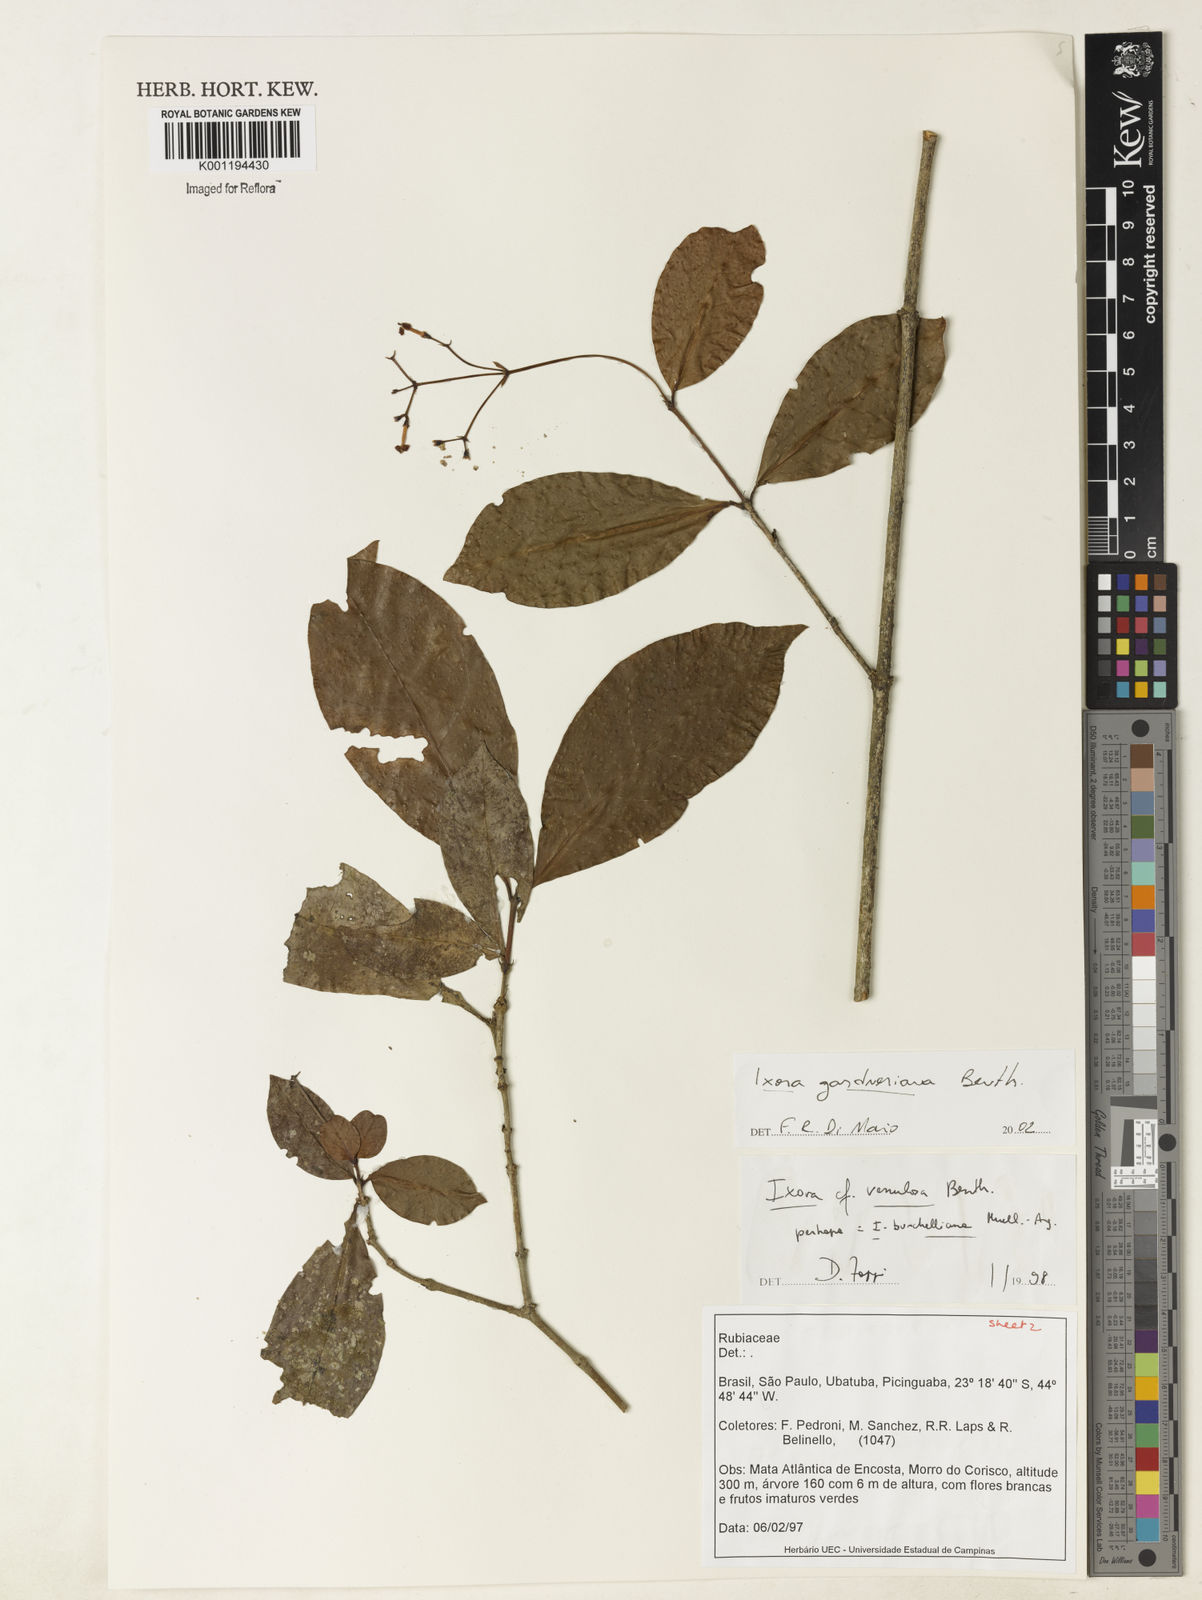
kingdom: Plantae
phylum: Tracheophyta
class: Magnoliopsida
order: Gentianales
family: Rubiaceae
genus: Ixora
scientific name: Ixora gardneriana
